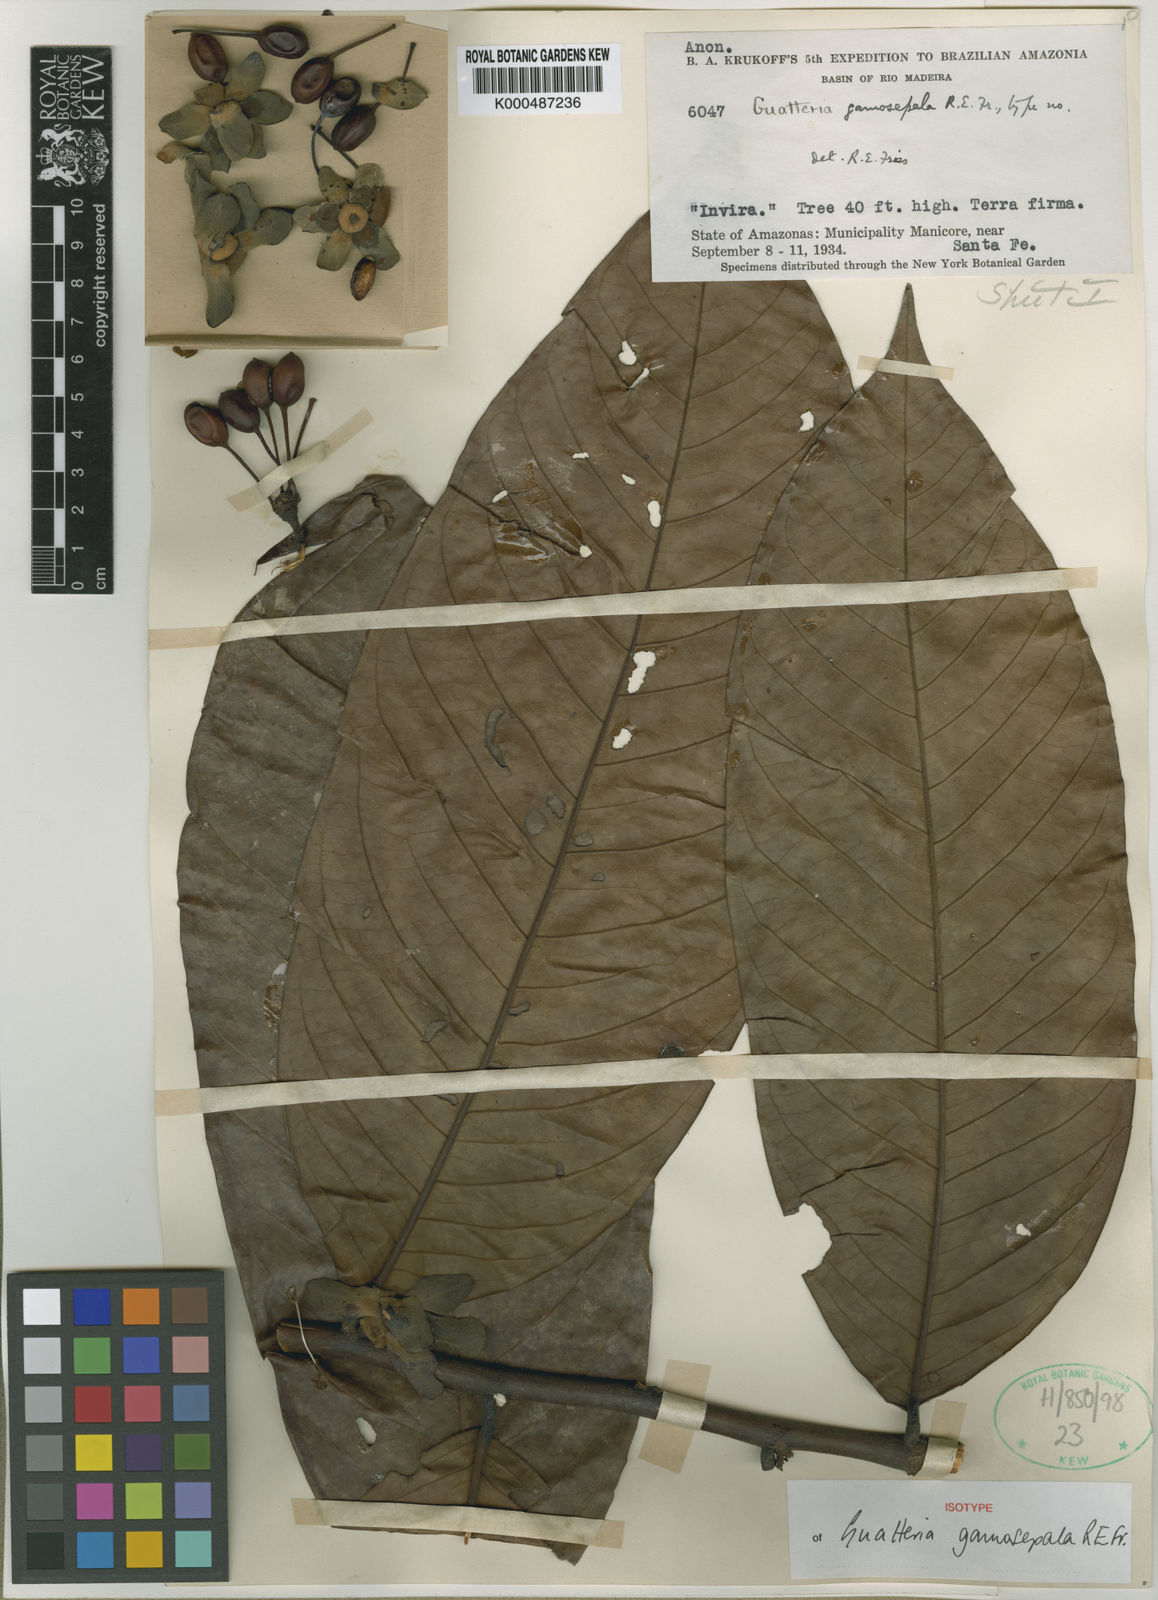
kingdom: Plantae
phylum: Tracheophyta
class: Magnoliopsida
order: Magnoliales
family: Annonaceae
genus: Guatteria
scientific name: Guatteria punctata
